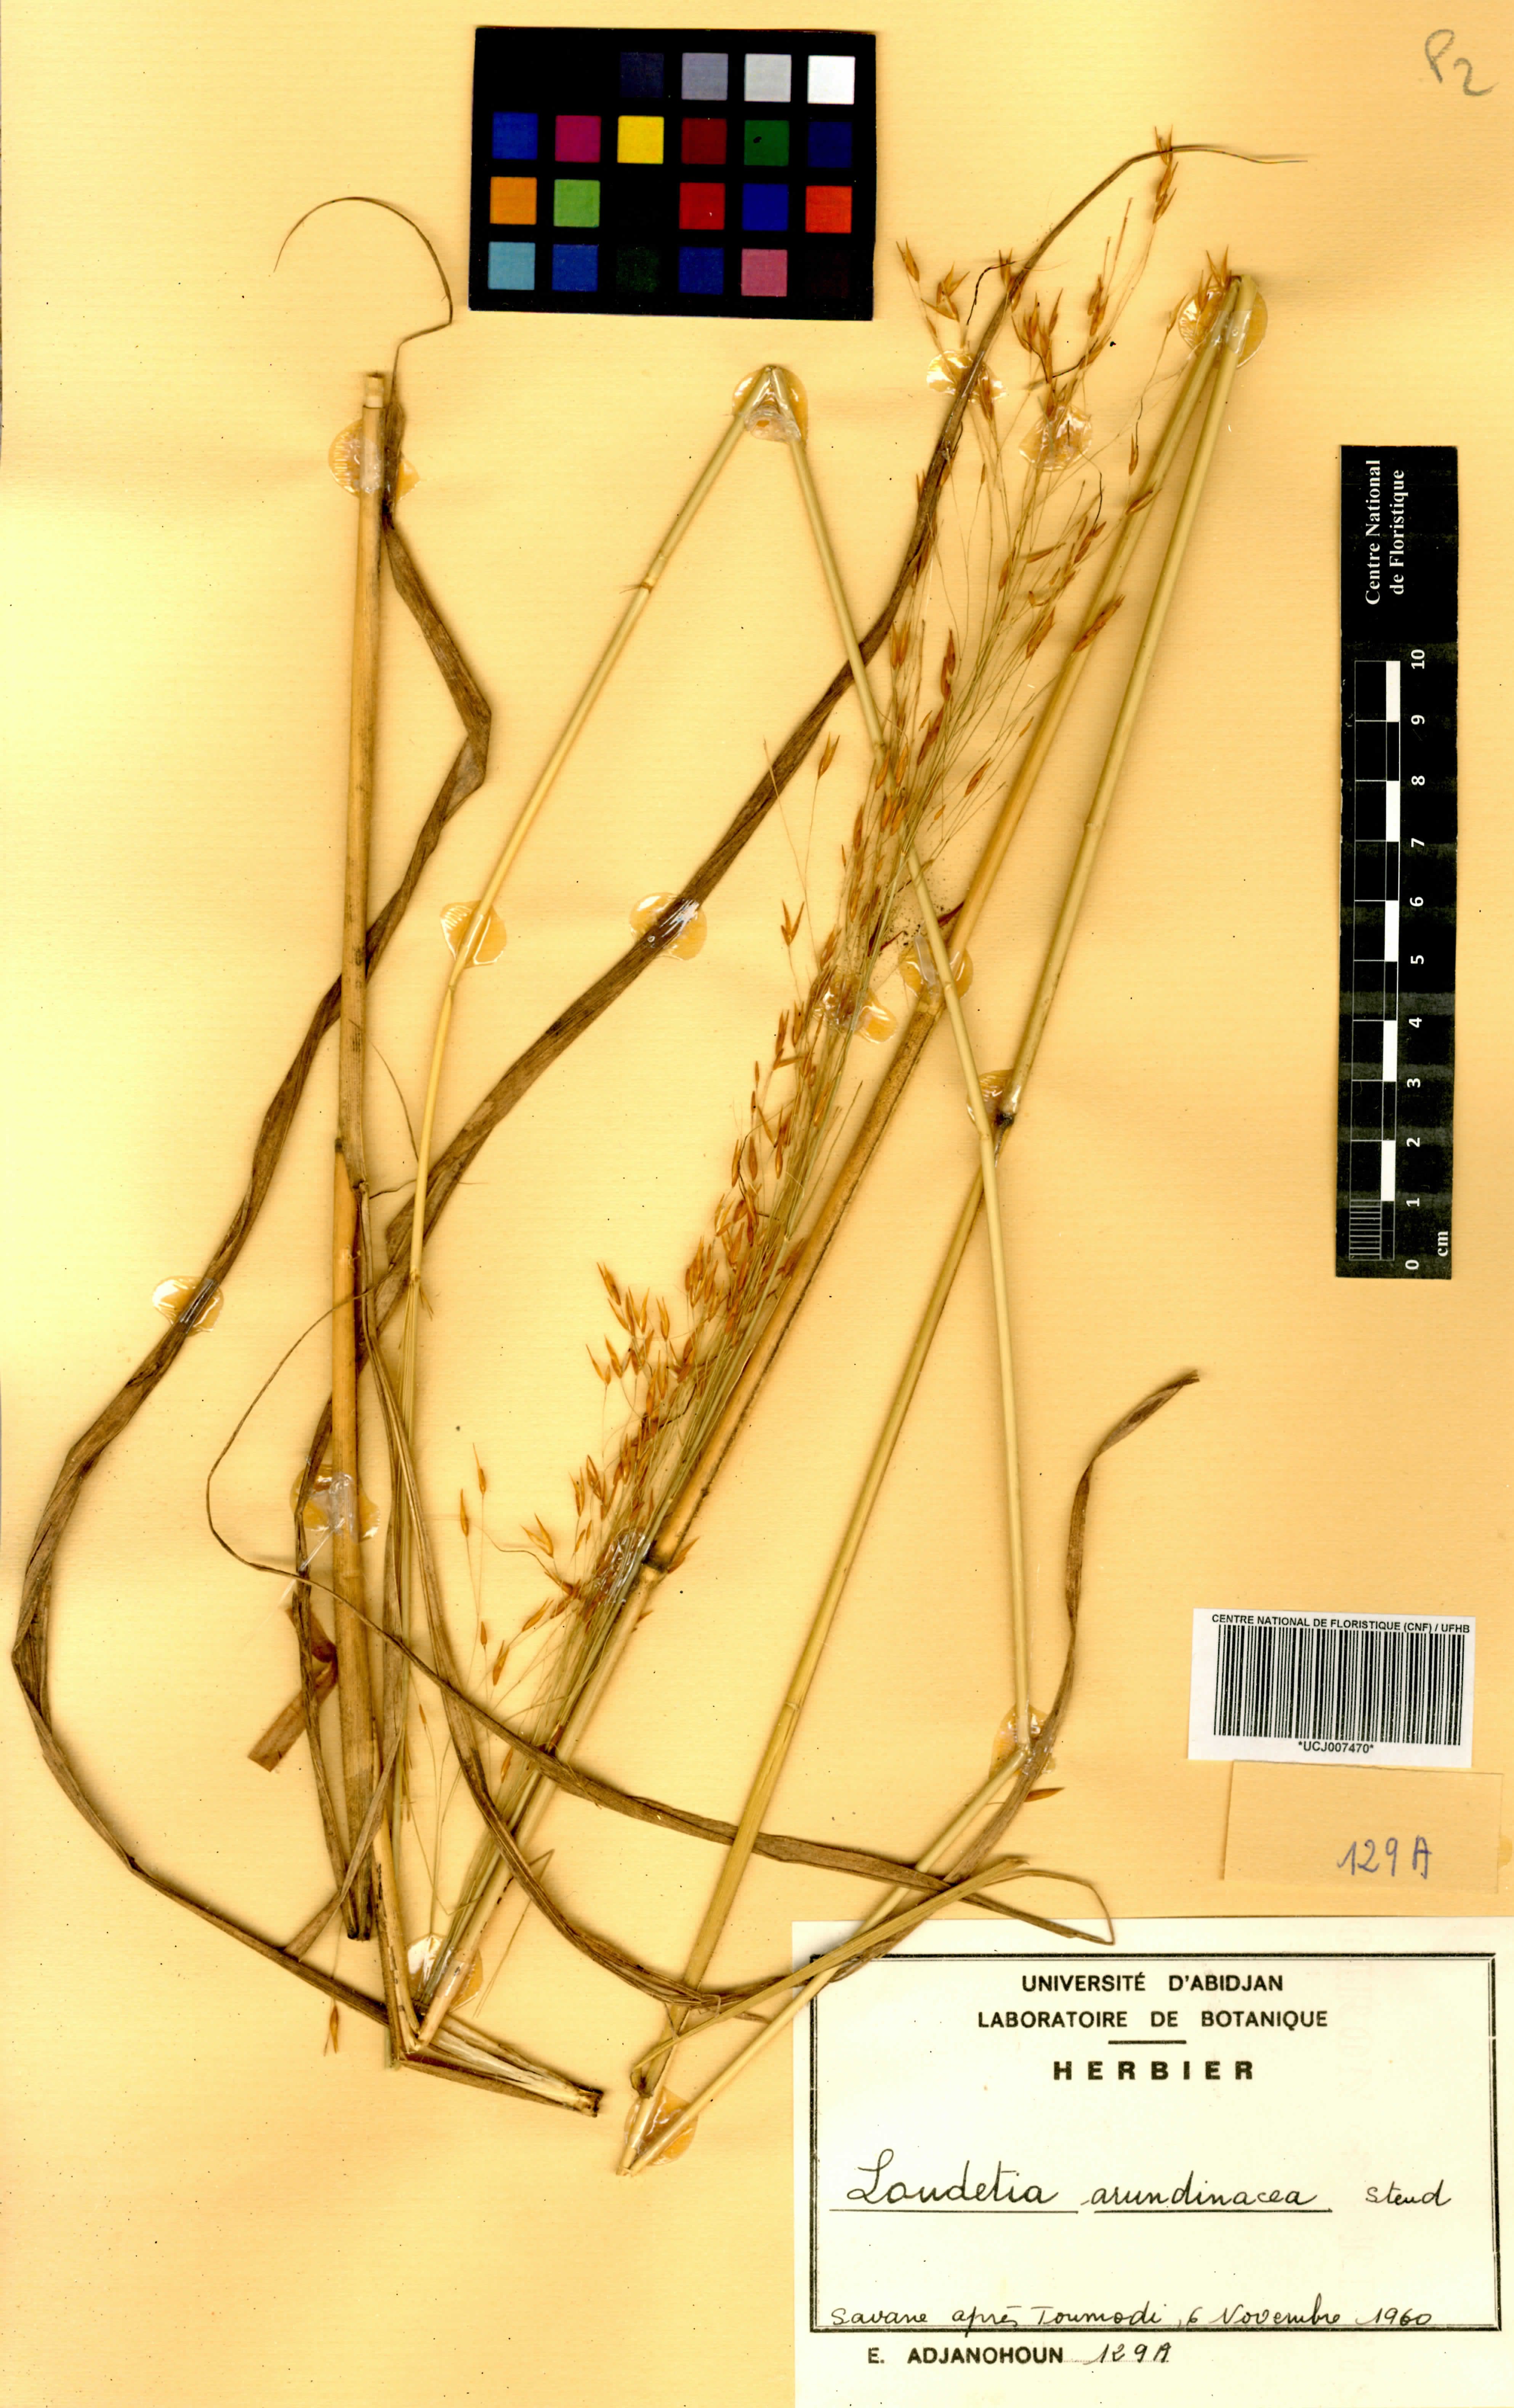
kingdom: Plantae
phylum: Tracheophyta
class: Liliopsida
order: Poales
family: Poaceae
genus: Loudetia
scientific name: Loudetia arundinacea
